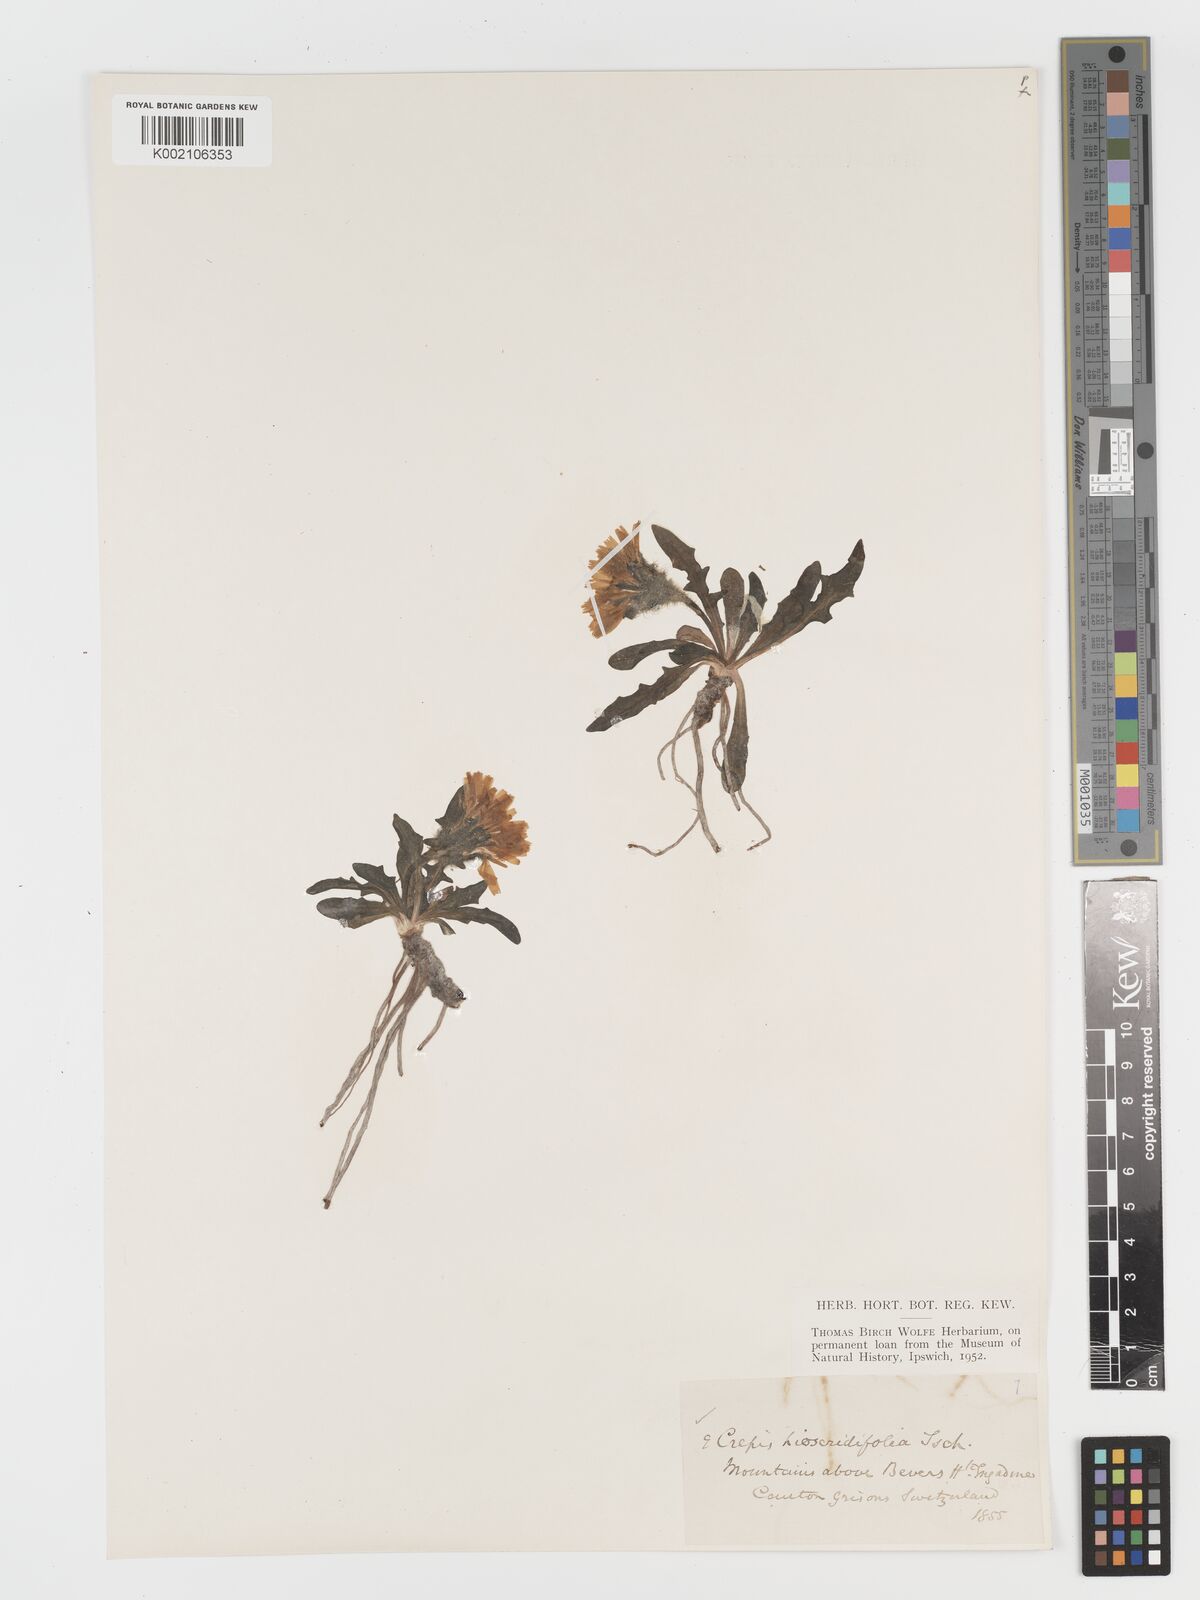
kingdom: Plantae
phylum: Tracheophyta
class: Magnoliopsida
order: Asterales
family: Asteraceae
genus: Crepis
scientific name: Crepis
